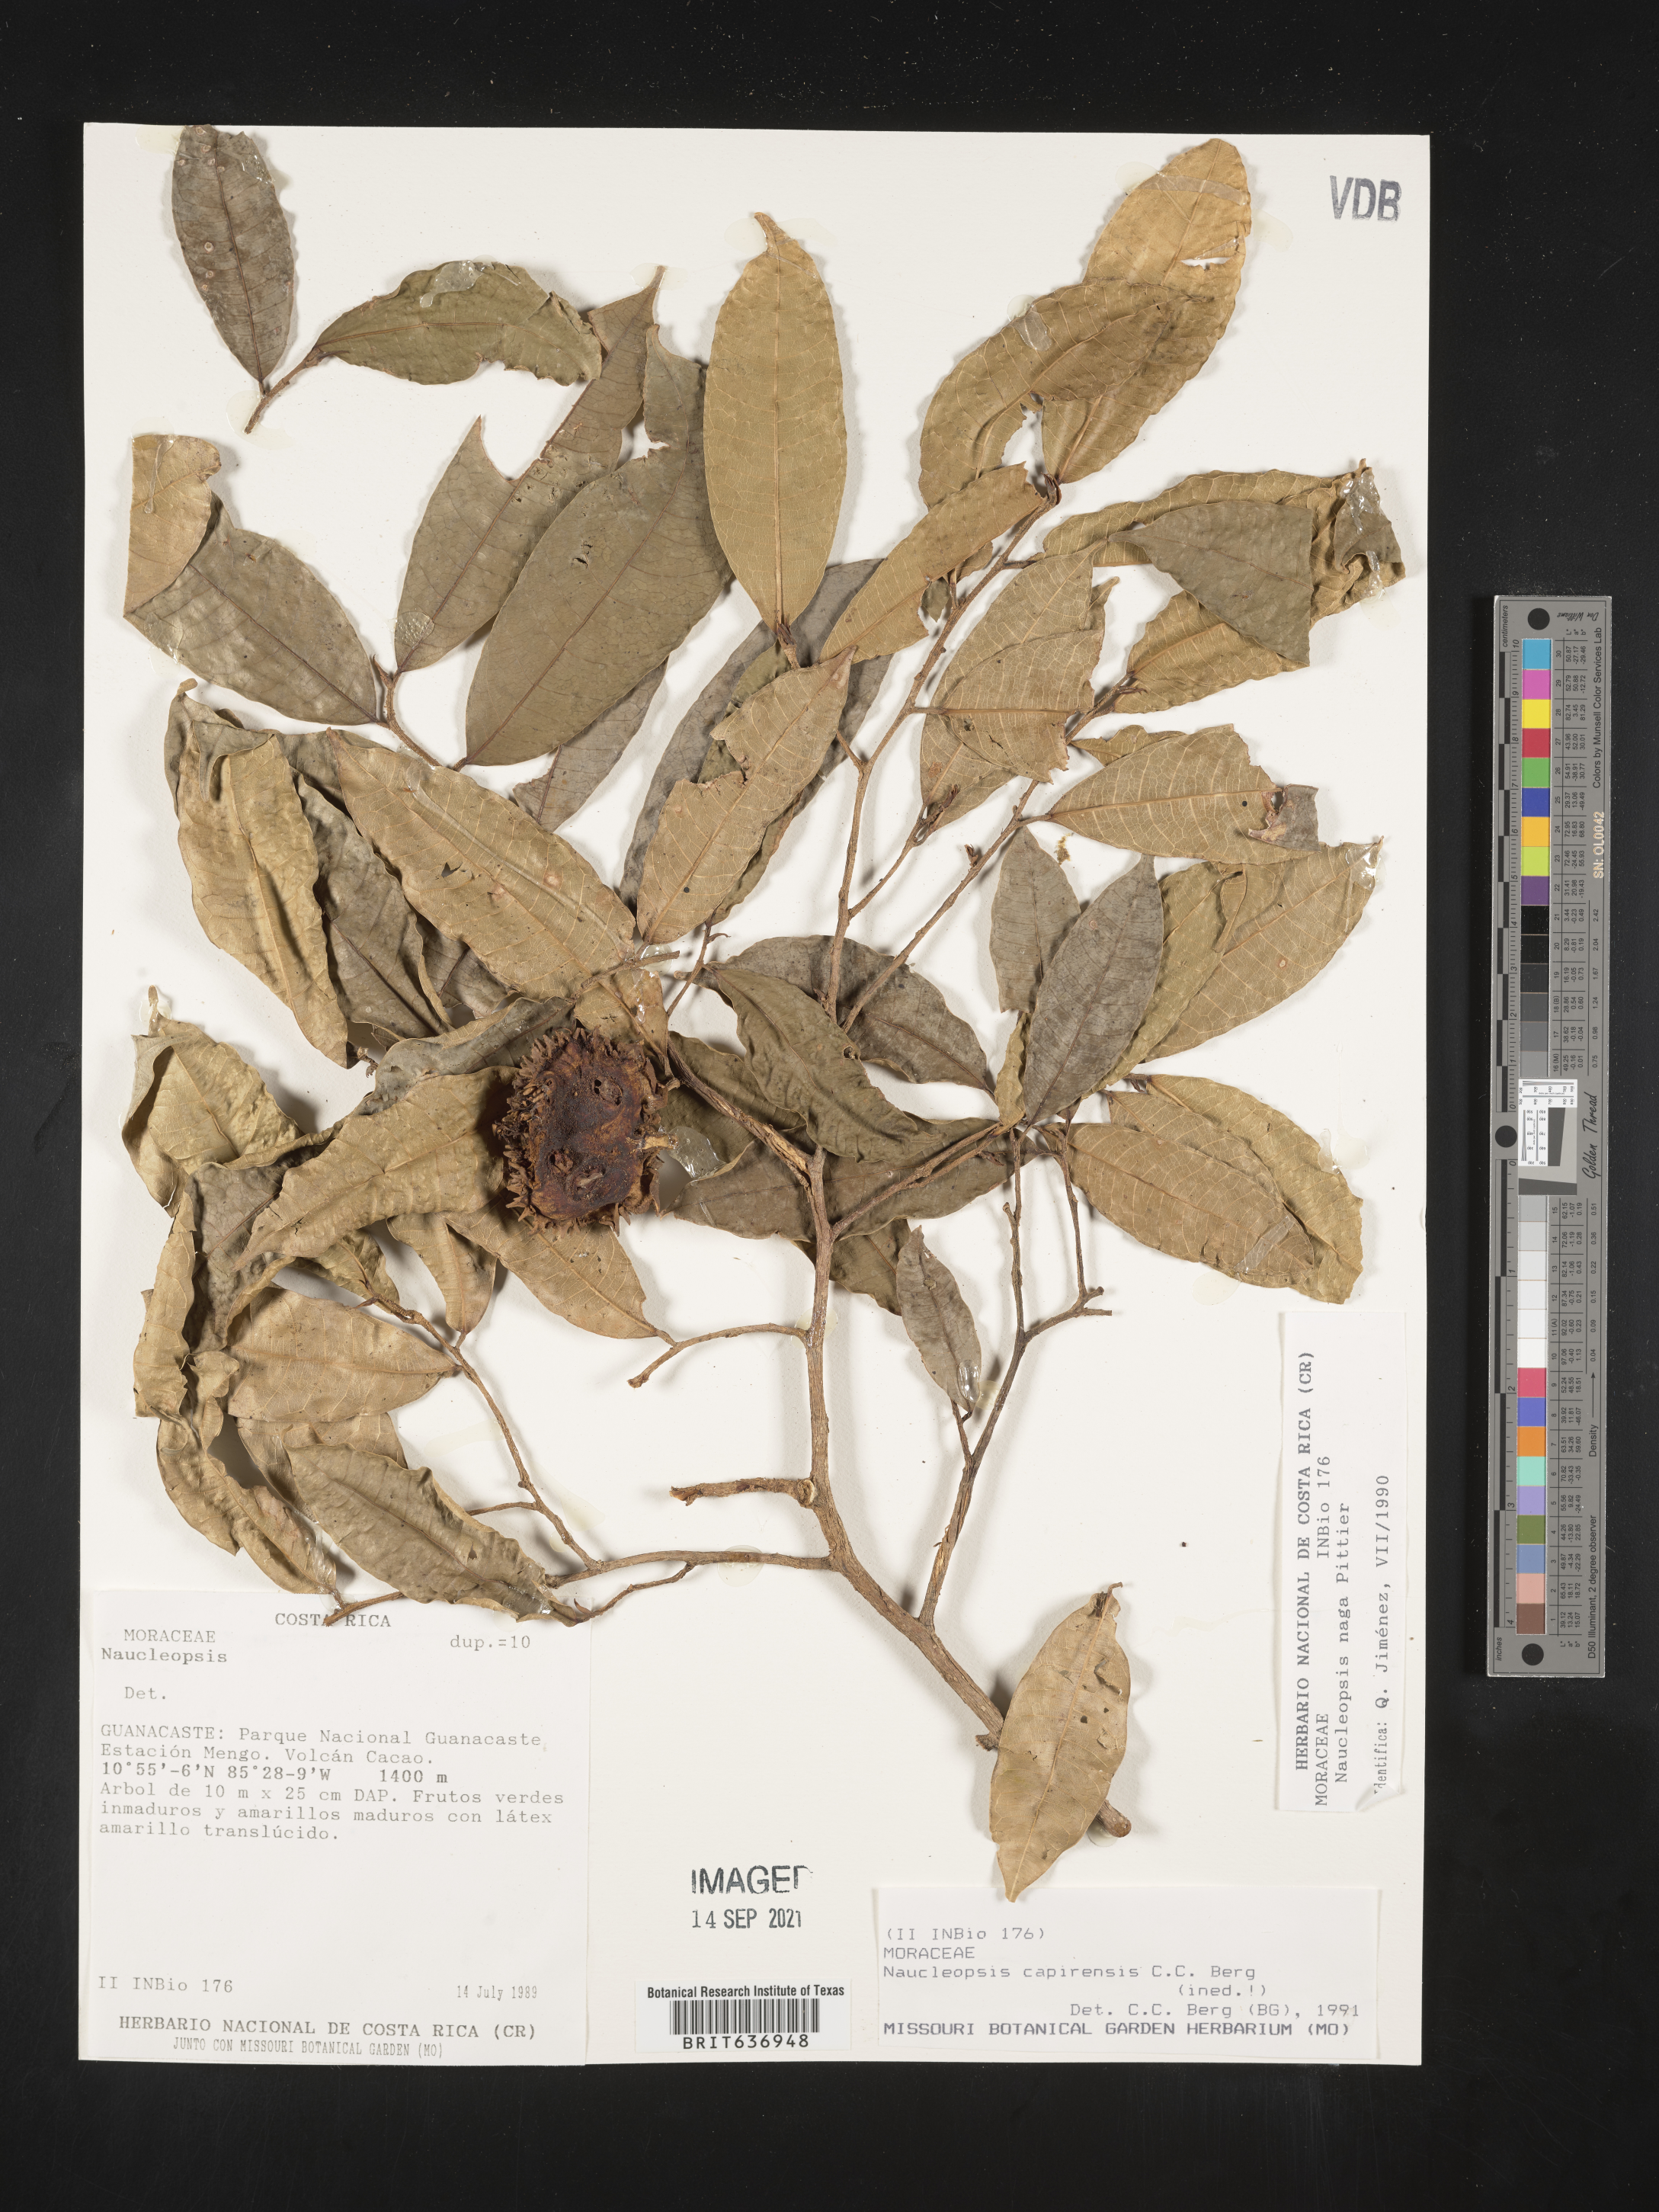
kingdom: Plantae
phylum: Tracheophyta
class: Magnoliopsida
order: Rosales
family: Moraceae
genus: Naucleopsis
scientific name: Naucleopsis
